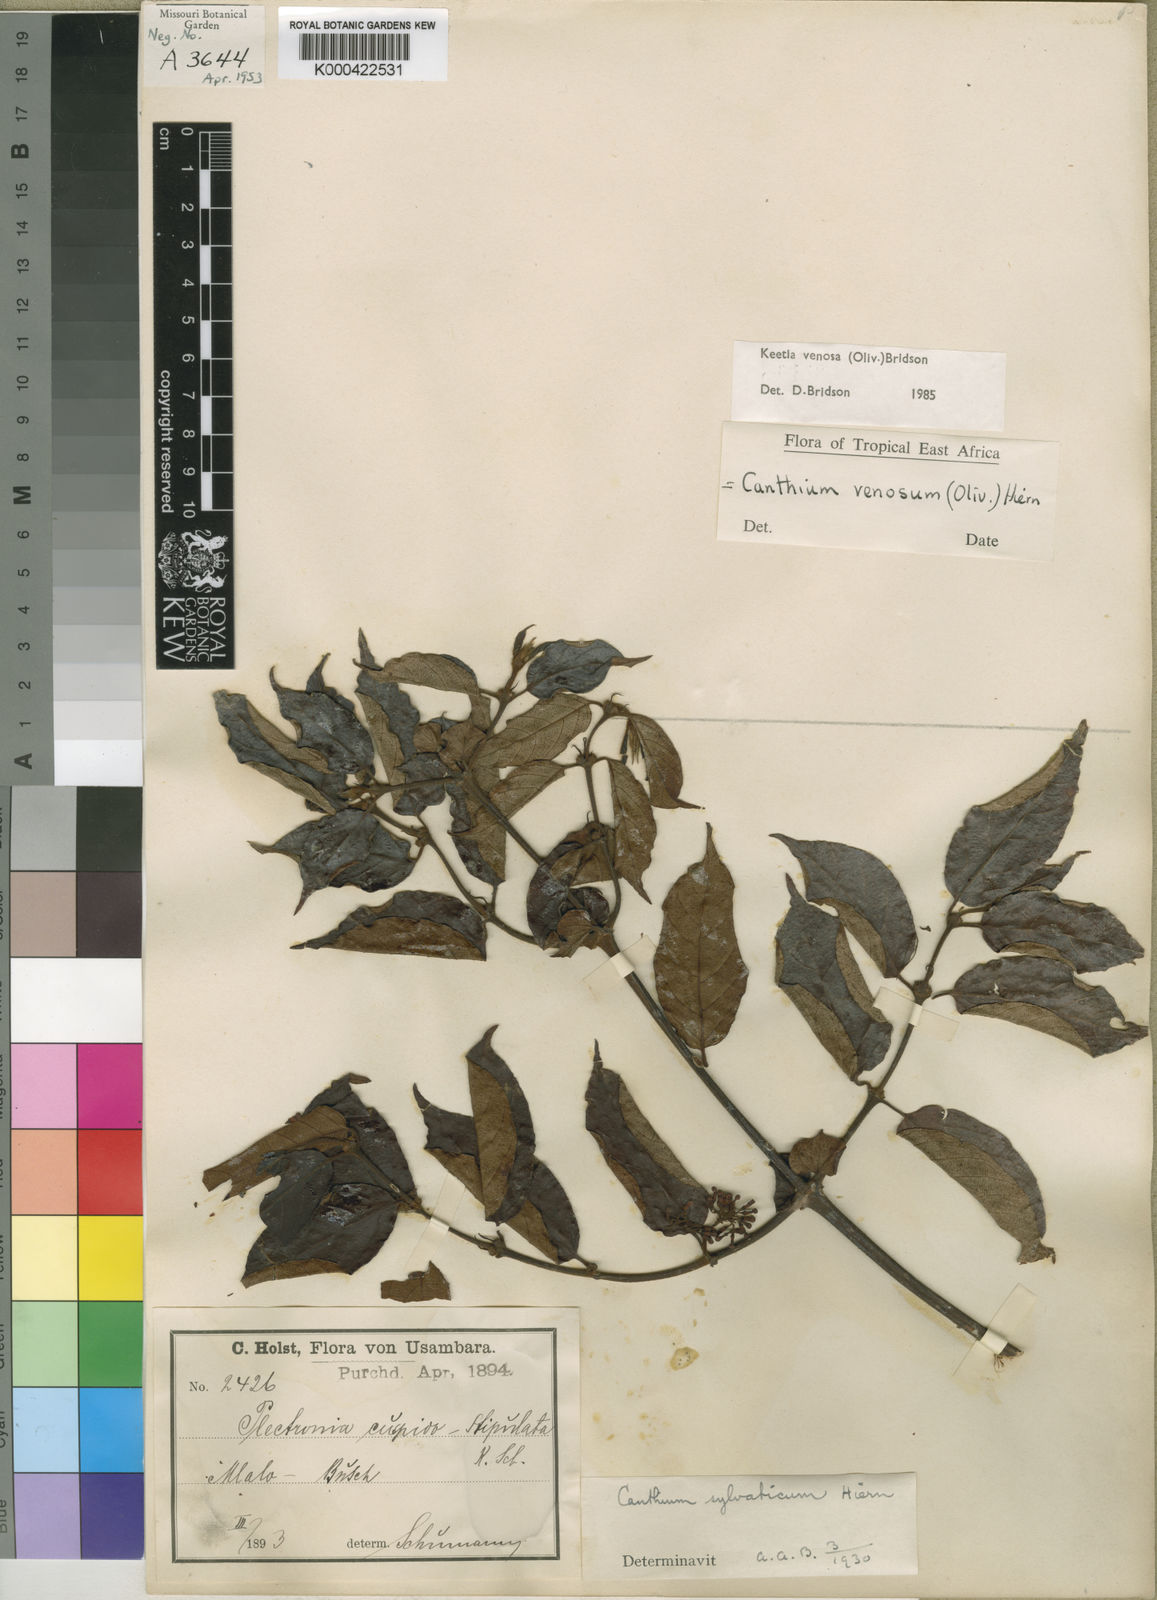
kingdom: Plantae
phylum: Tracheophyta
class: Magnoliopsida
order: Gentianales
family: Rubiaceae
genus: Keetia
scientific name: Keetia venosa
